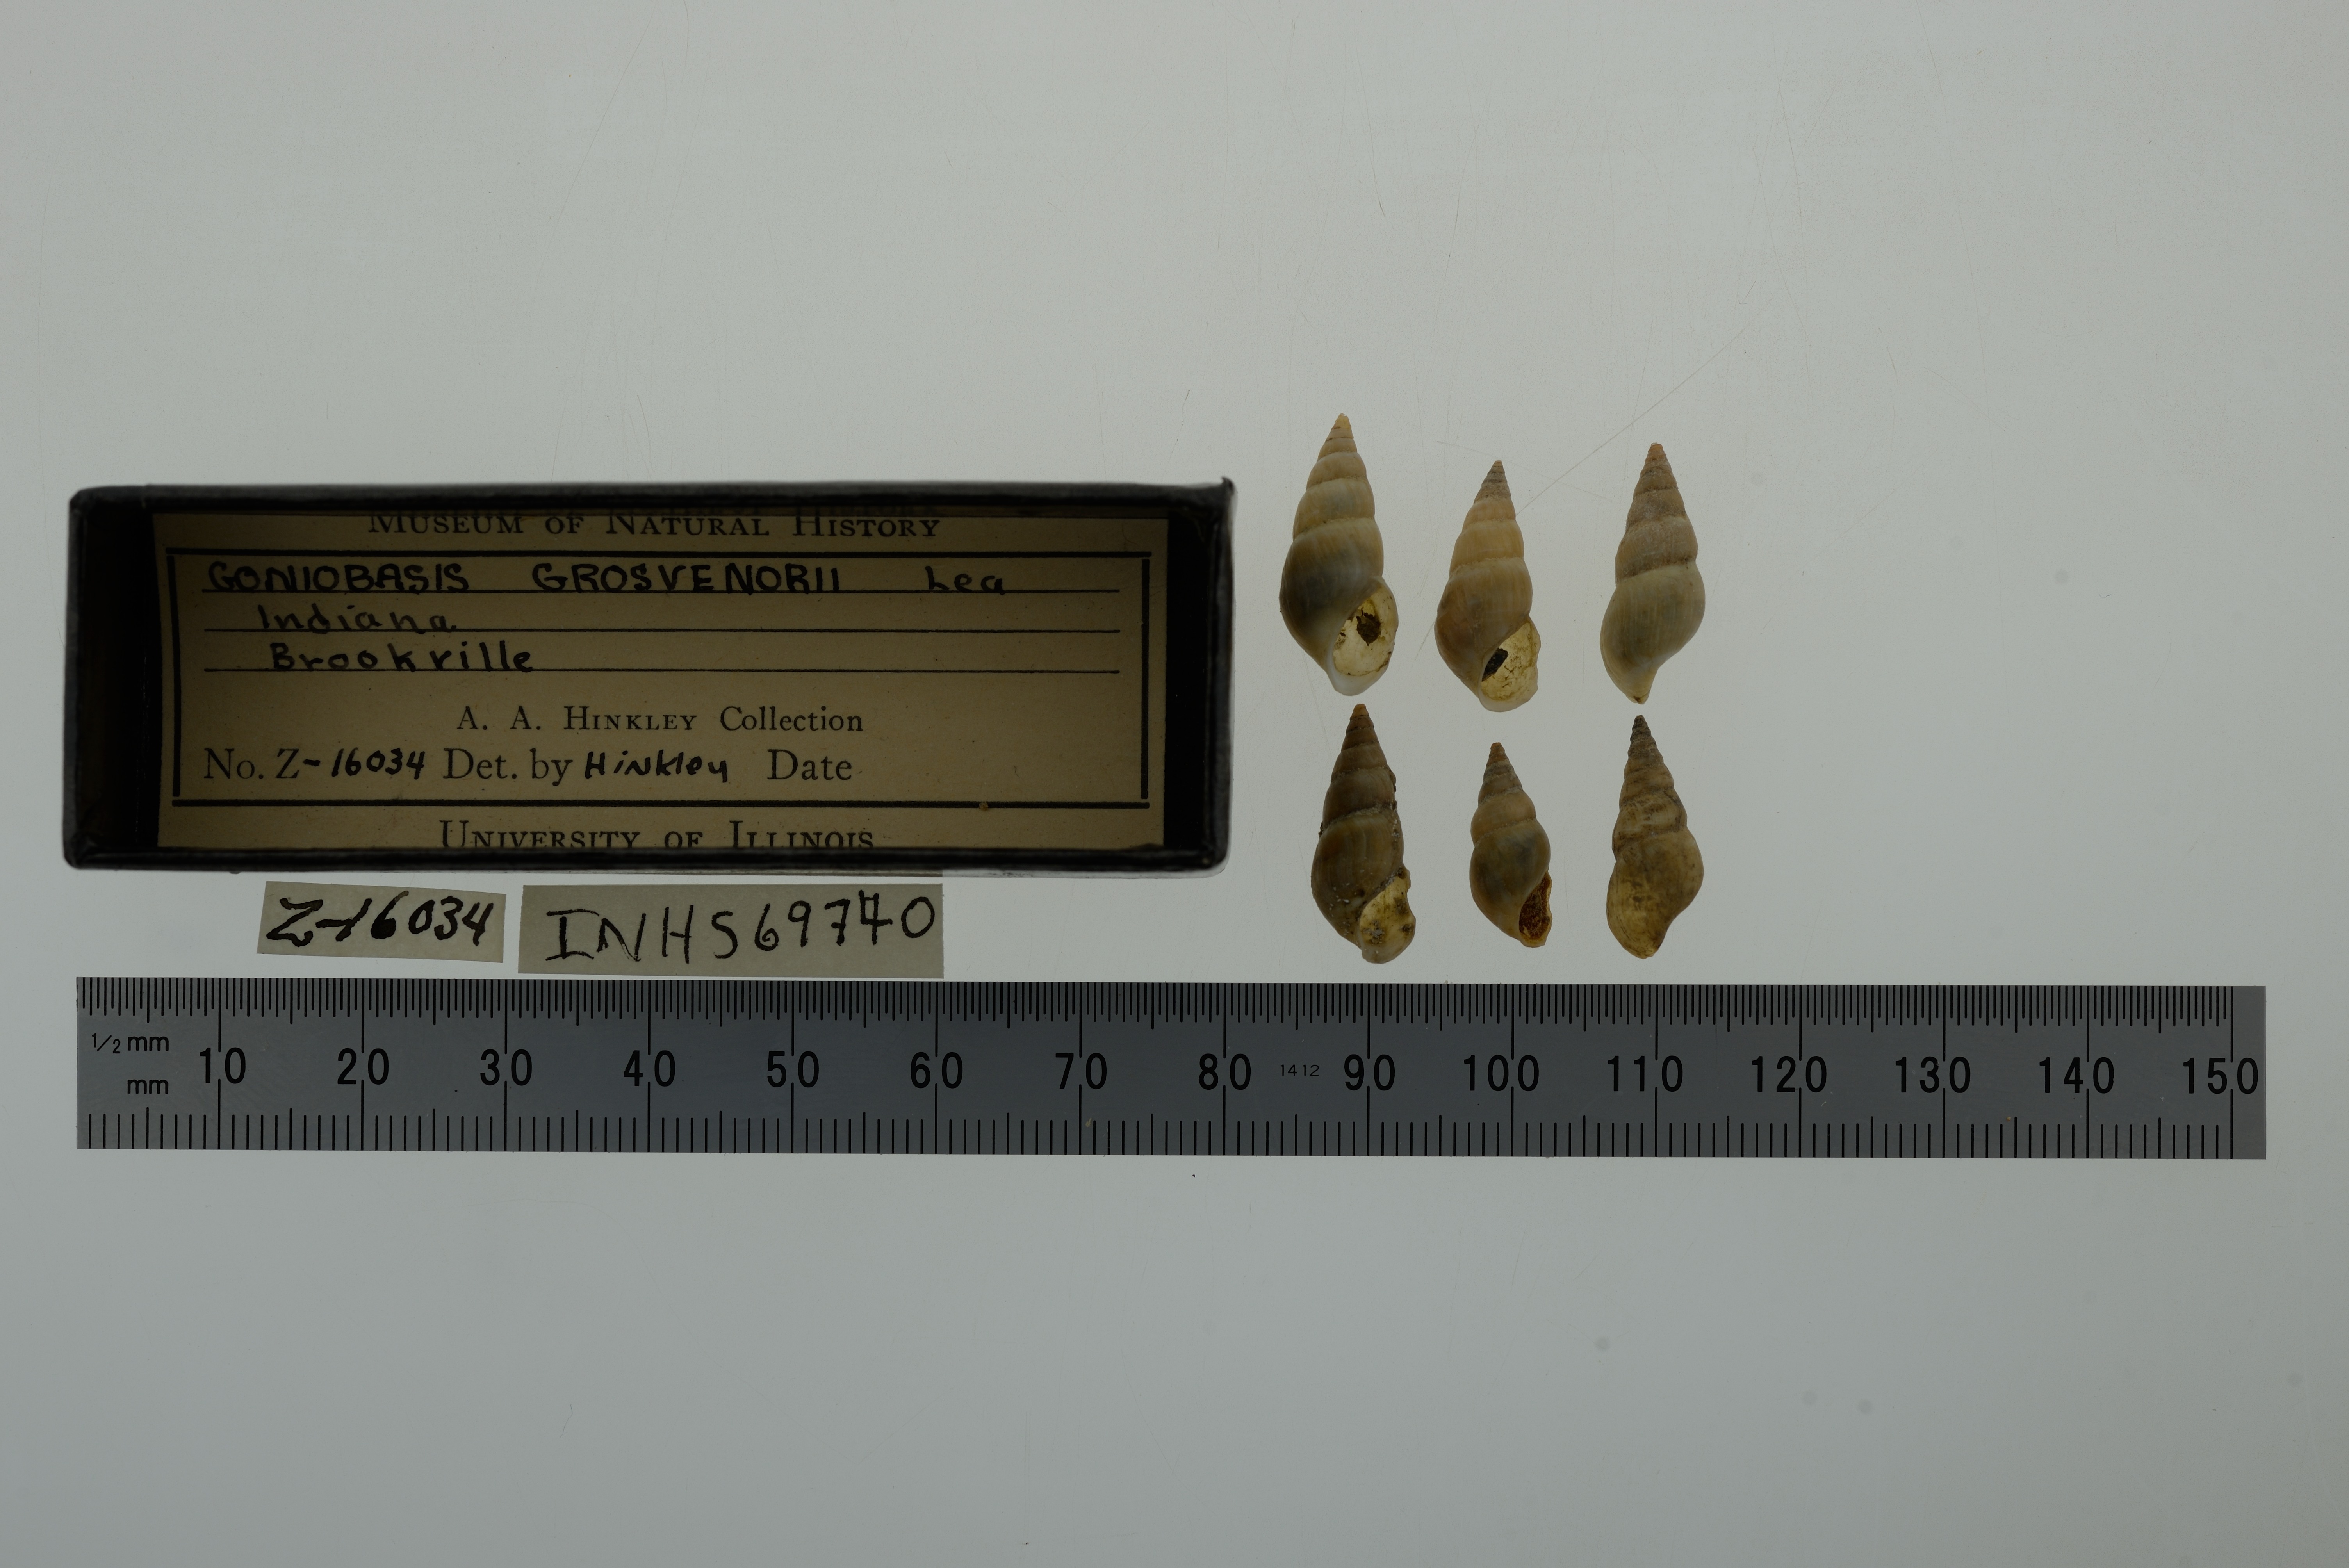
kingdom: Animalia
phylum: Mollusca
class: Gastropoda
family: Pleuroceridae
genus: Elimia
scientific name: Elimia semicarinata
